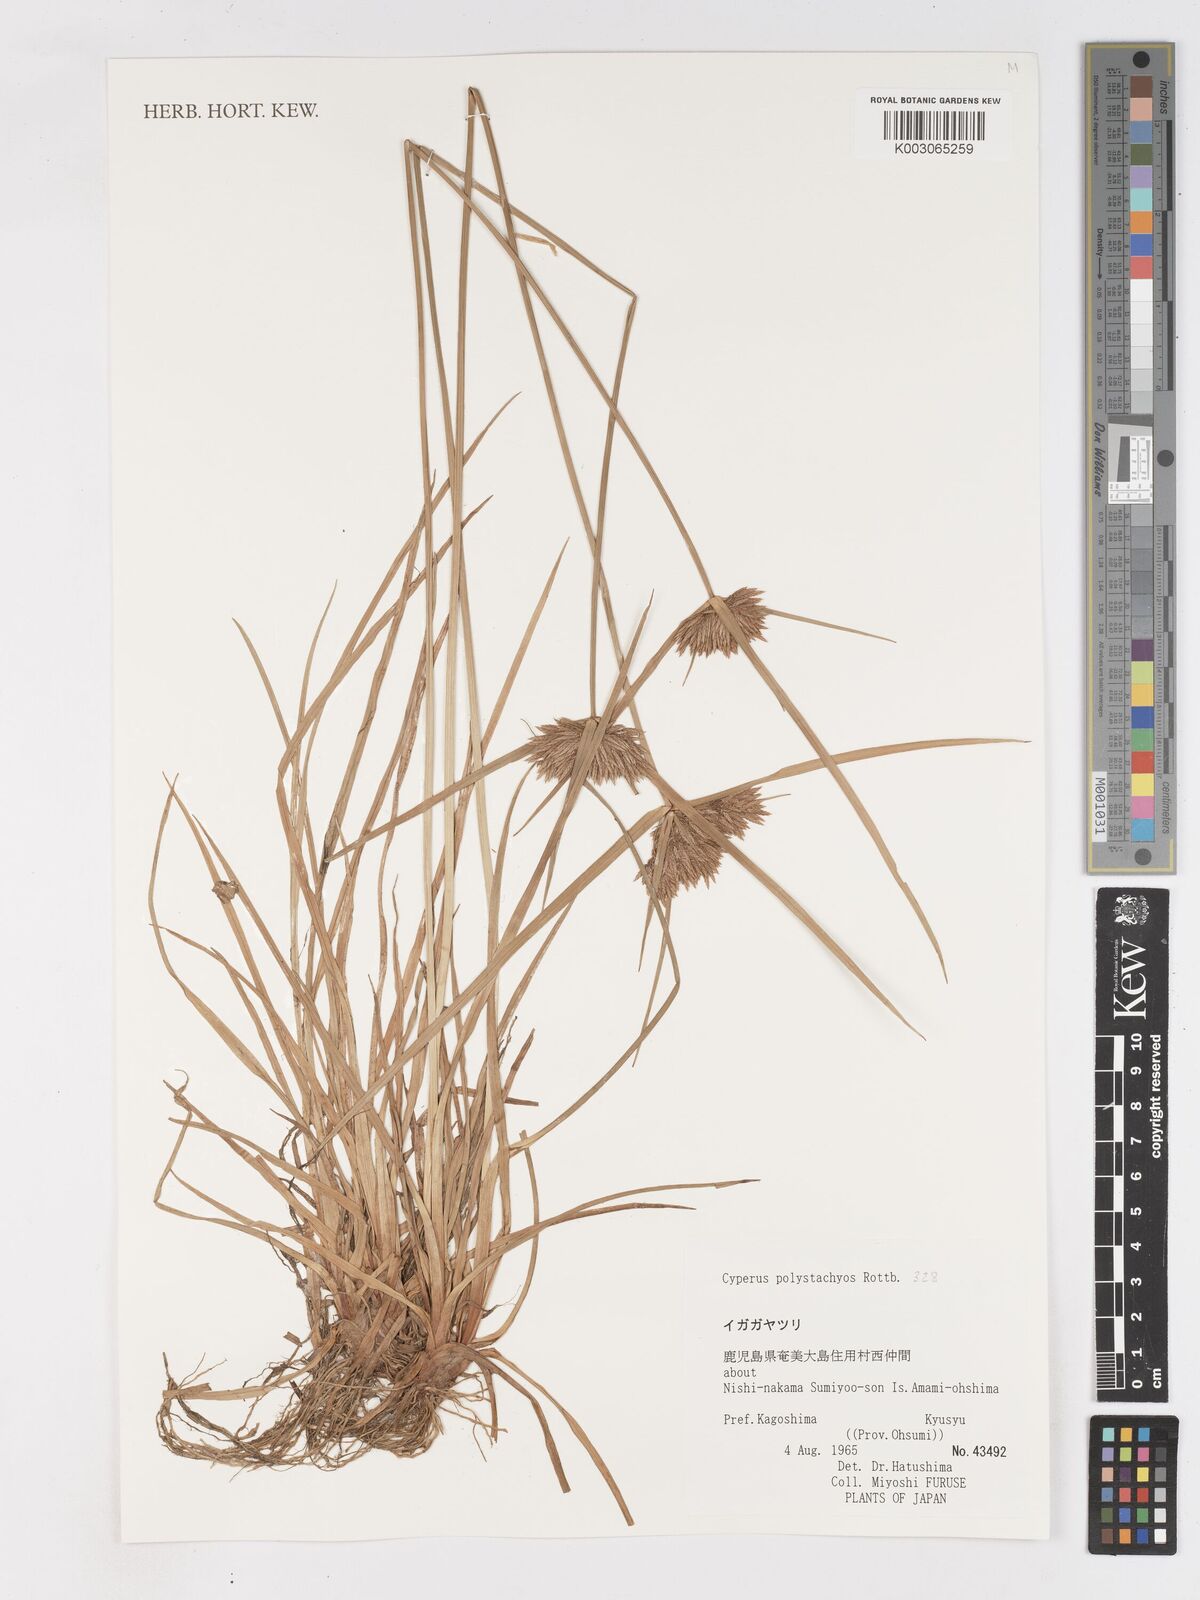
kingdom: Plantae
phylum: Tracheophyta
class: Liliopsida
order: Poales
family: Cyperaceae
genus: Cyperus
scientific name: Cyperus polystachyos
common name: Bunchy flat sedge
